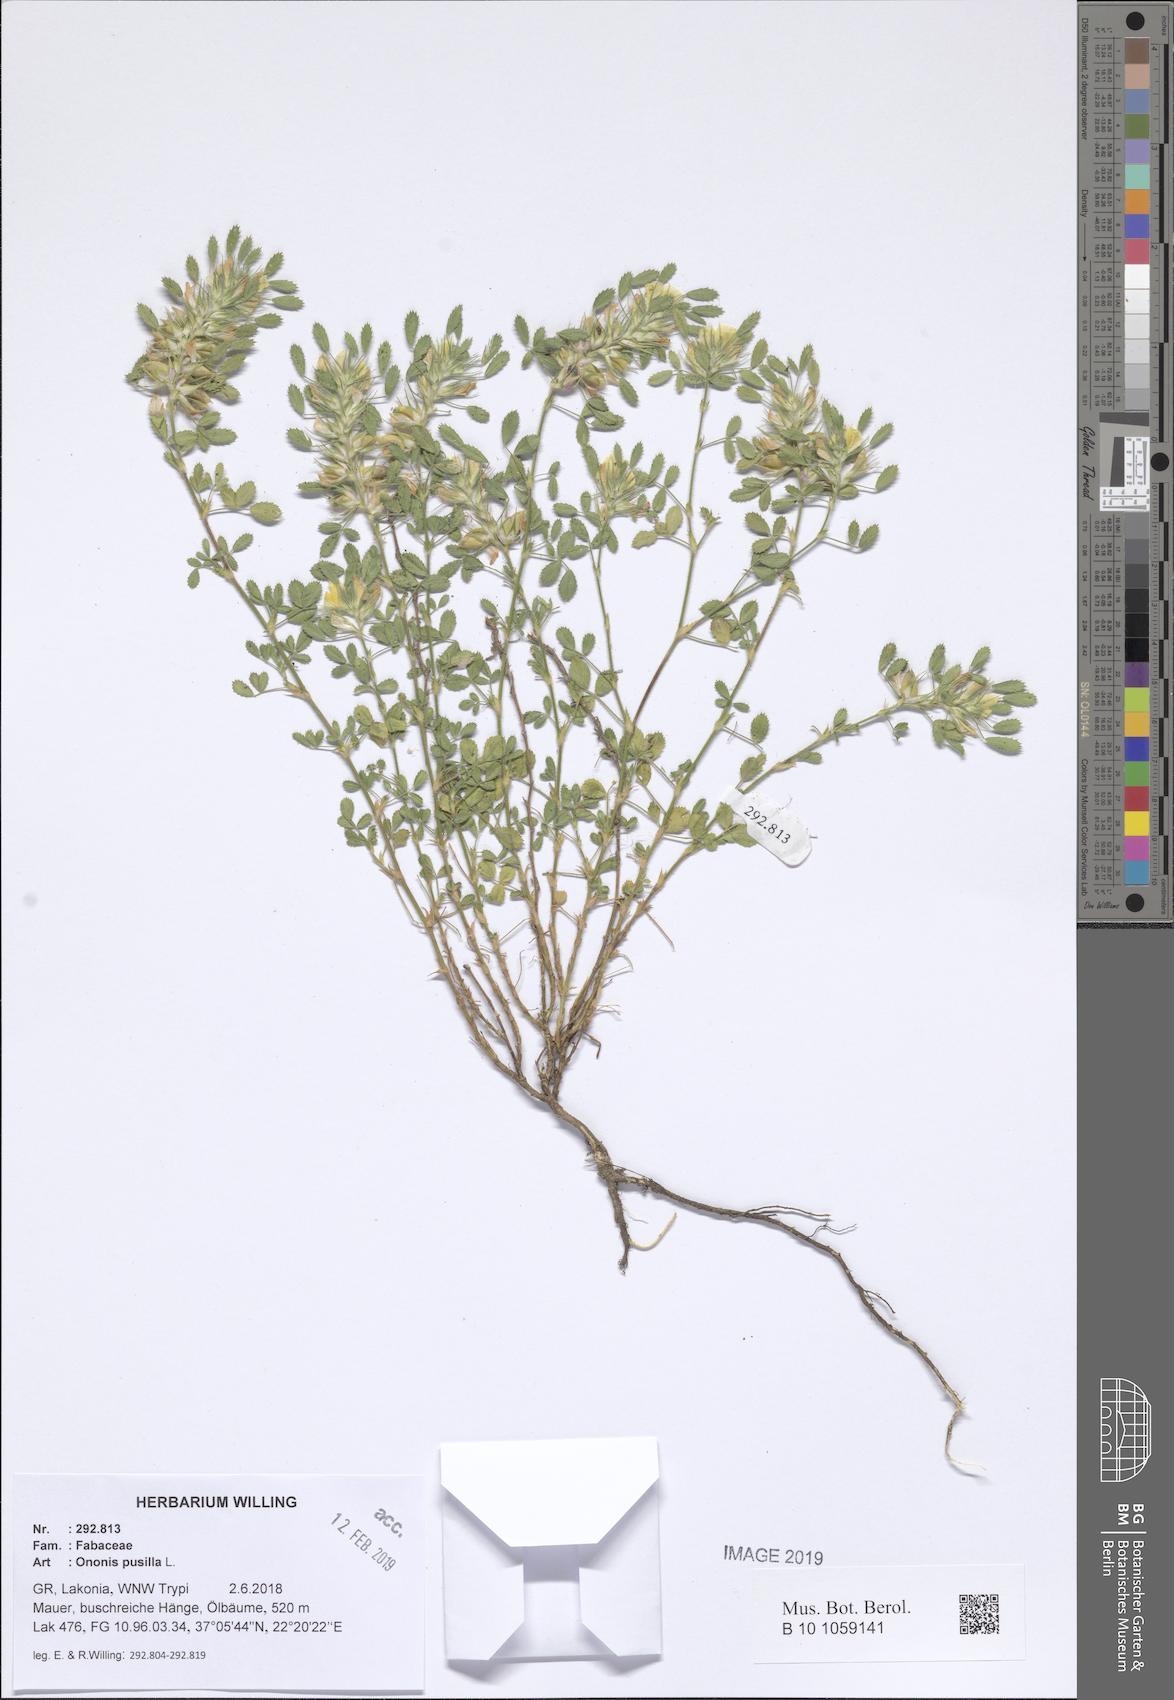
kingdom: Plantae
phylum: Tracheophyta
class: Magnoliopsida
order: Fabales
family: Fabaceae
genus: Ononis
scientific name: Ononis pusilla
